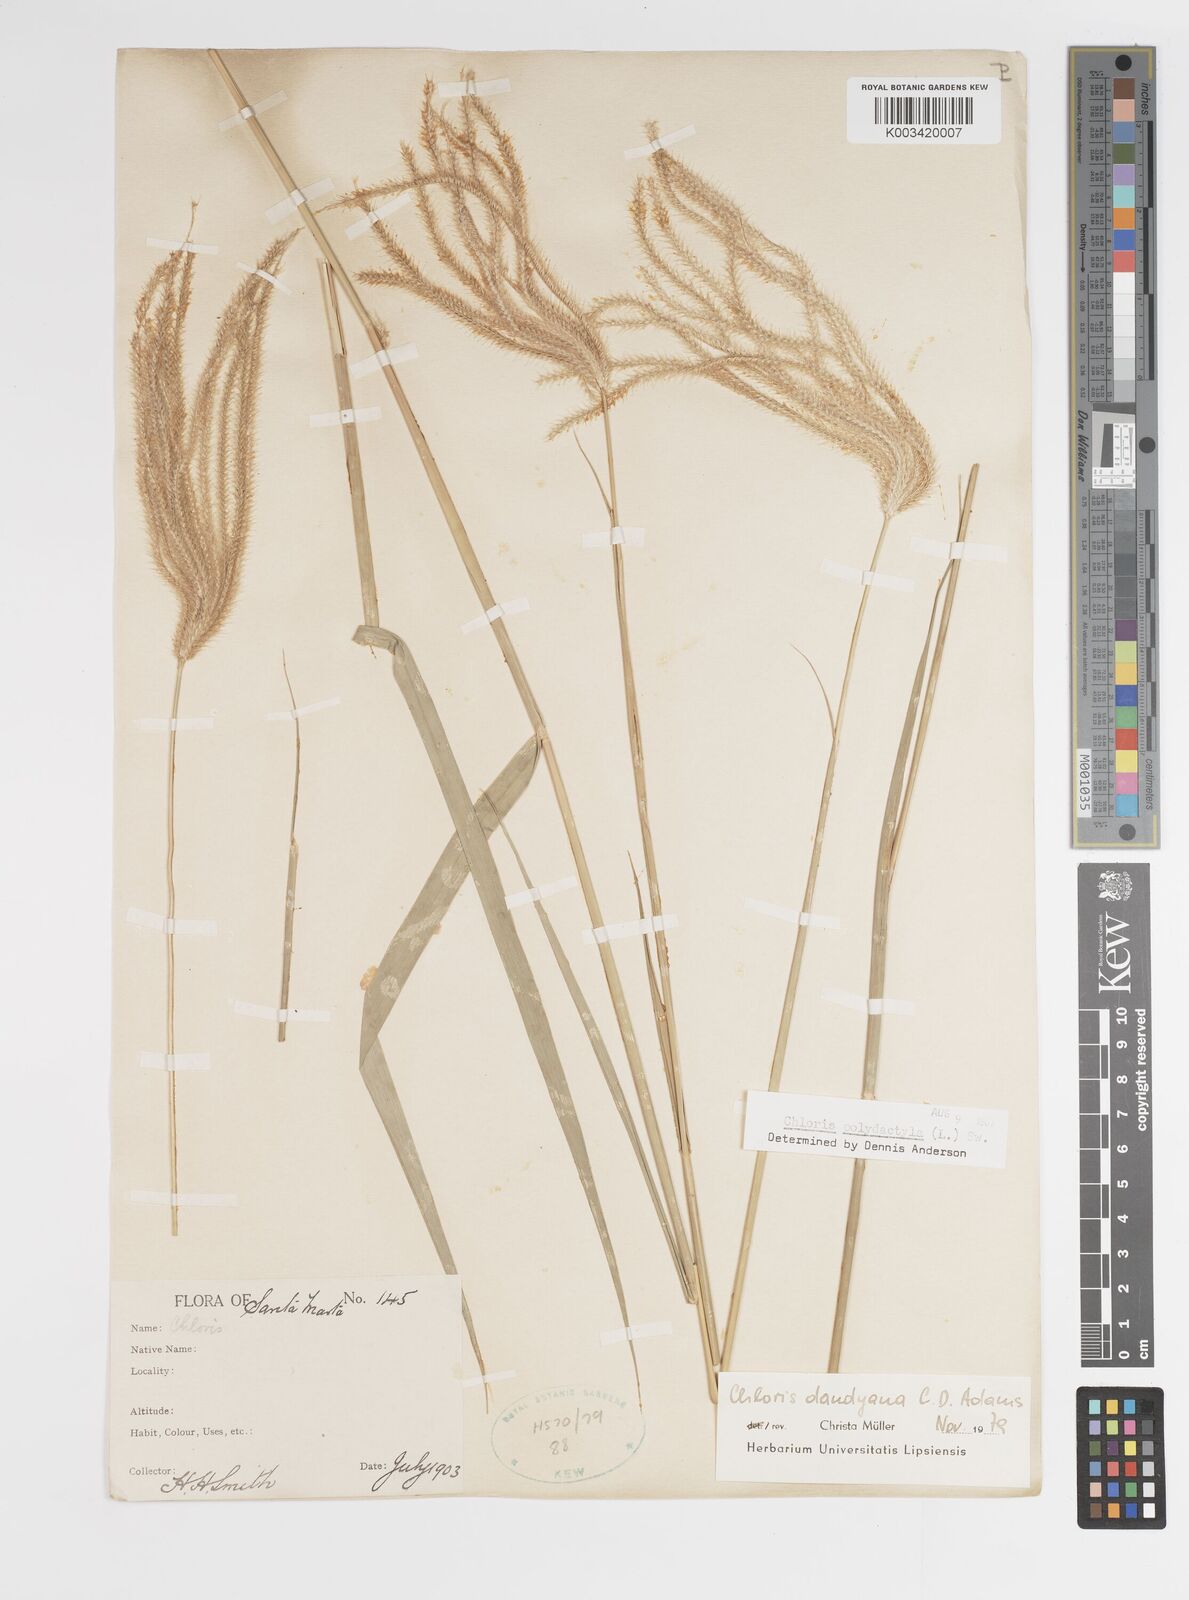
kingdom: Plantae
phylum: Tracheophyta
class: Liliopsida
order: Poales
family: Poaceae
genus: Stapfochloa
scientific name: Stapfochloa elata
